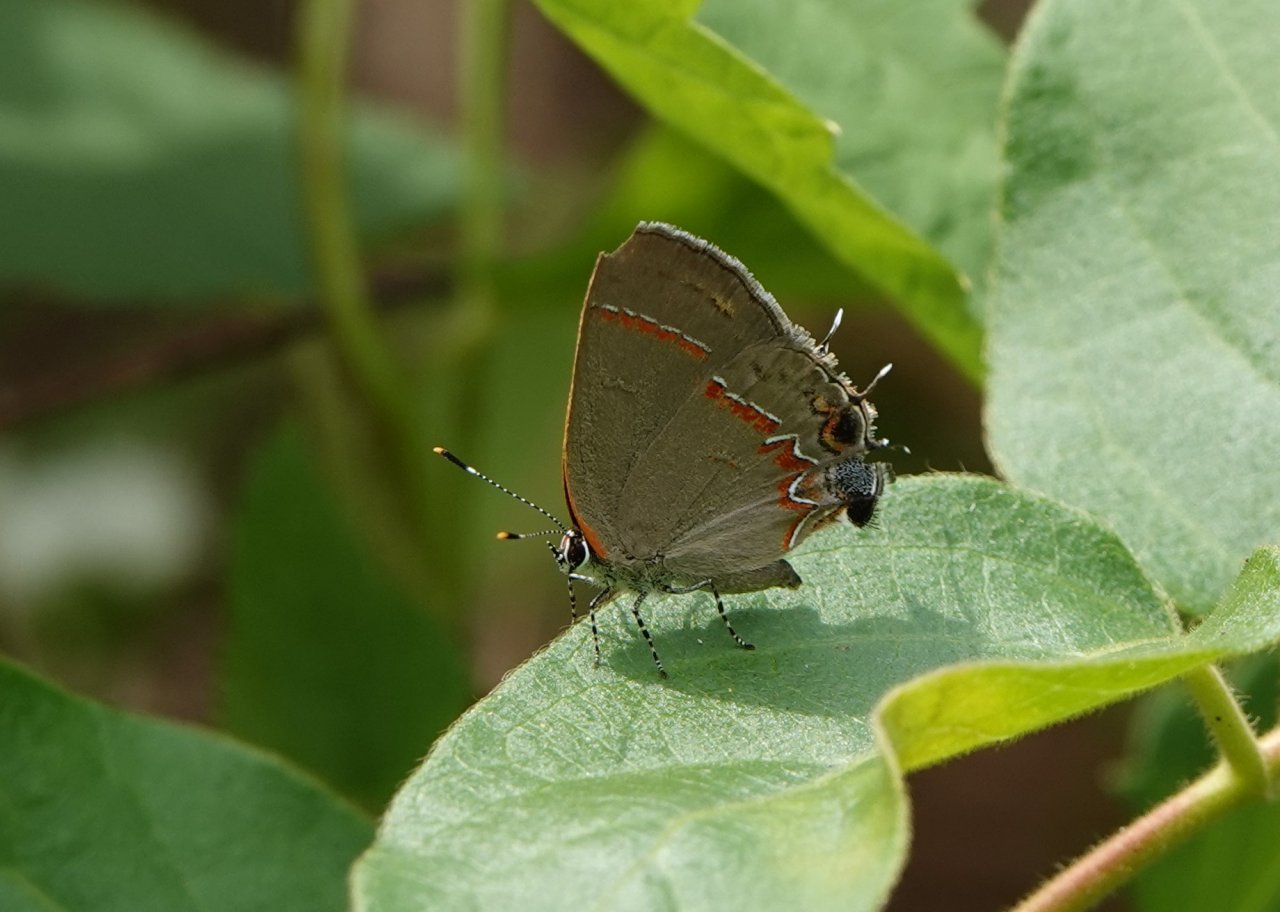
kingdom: Animalia
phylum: Arthropoda
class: Insecta
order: Lepidoptera
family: Lycaenidae
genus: Calycopis
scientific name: Calycopis cecrops
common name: Red-banded Hairstreak
